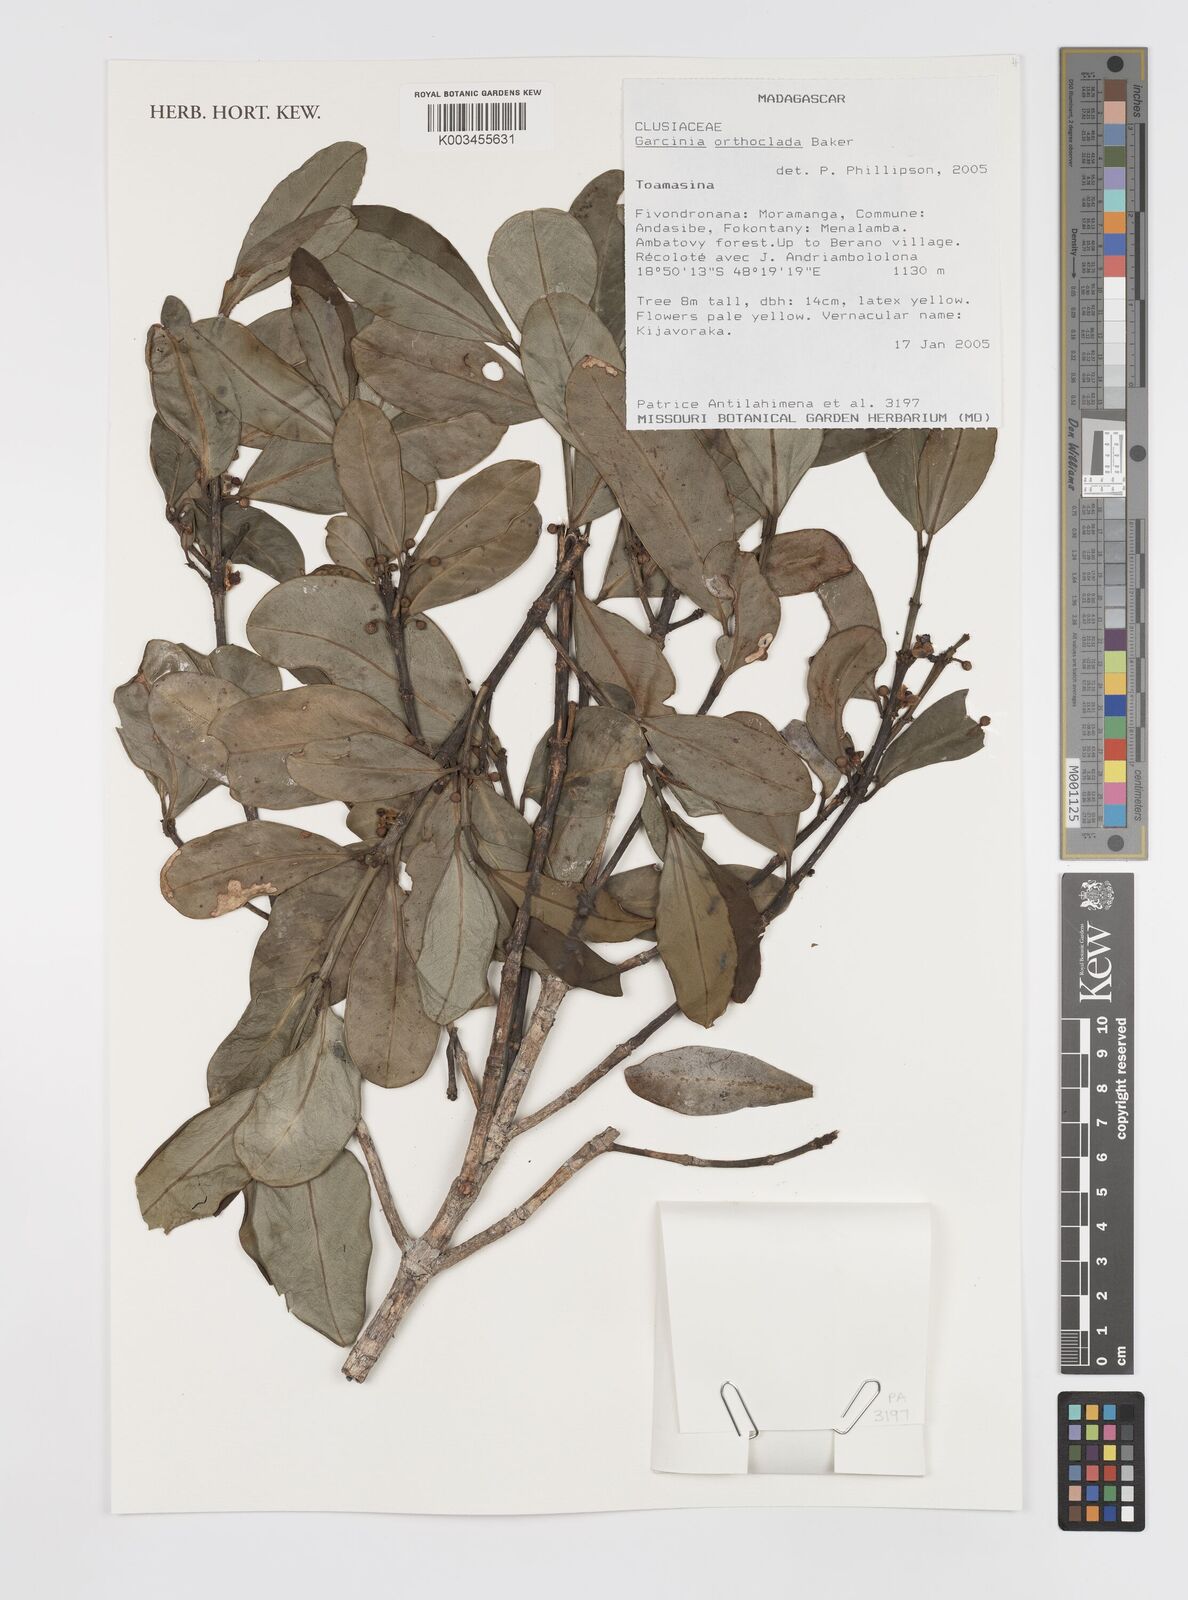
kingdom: Plantae
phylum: Tracheophyta
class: Magnoliopsida
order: Malpighiales
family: Clusiaceae
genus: Garcinia
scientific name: Garcinia orthoclada
